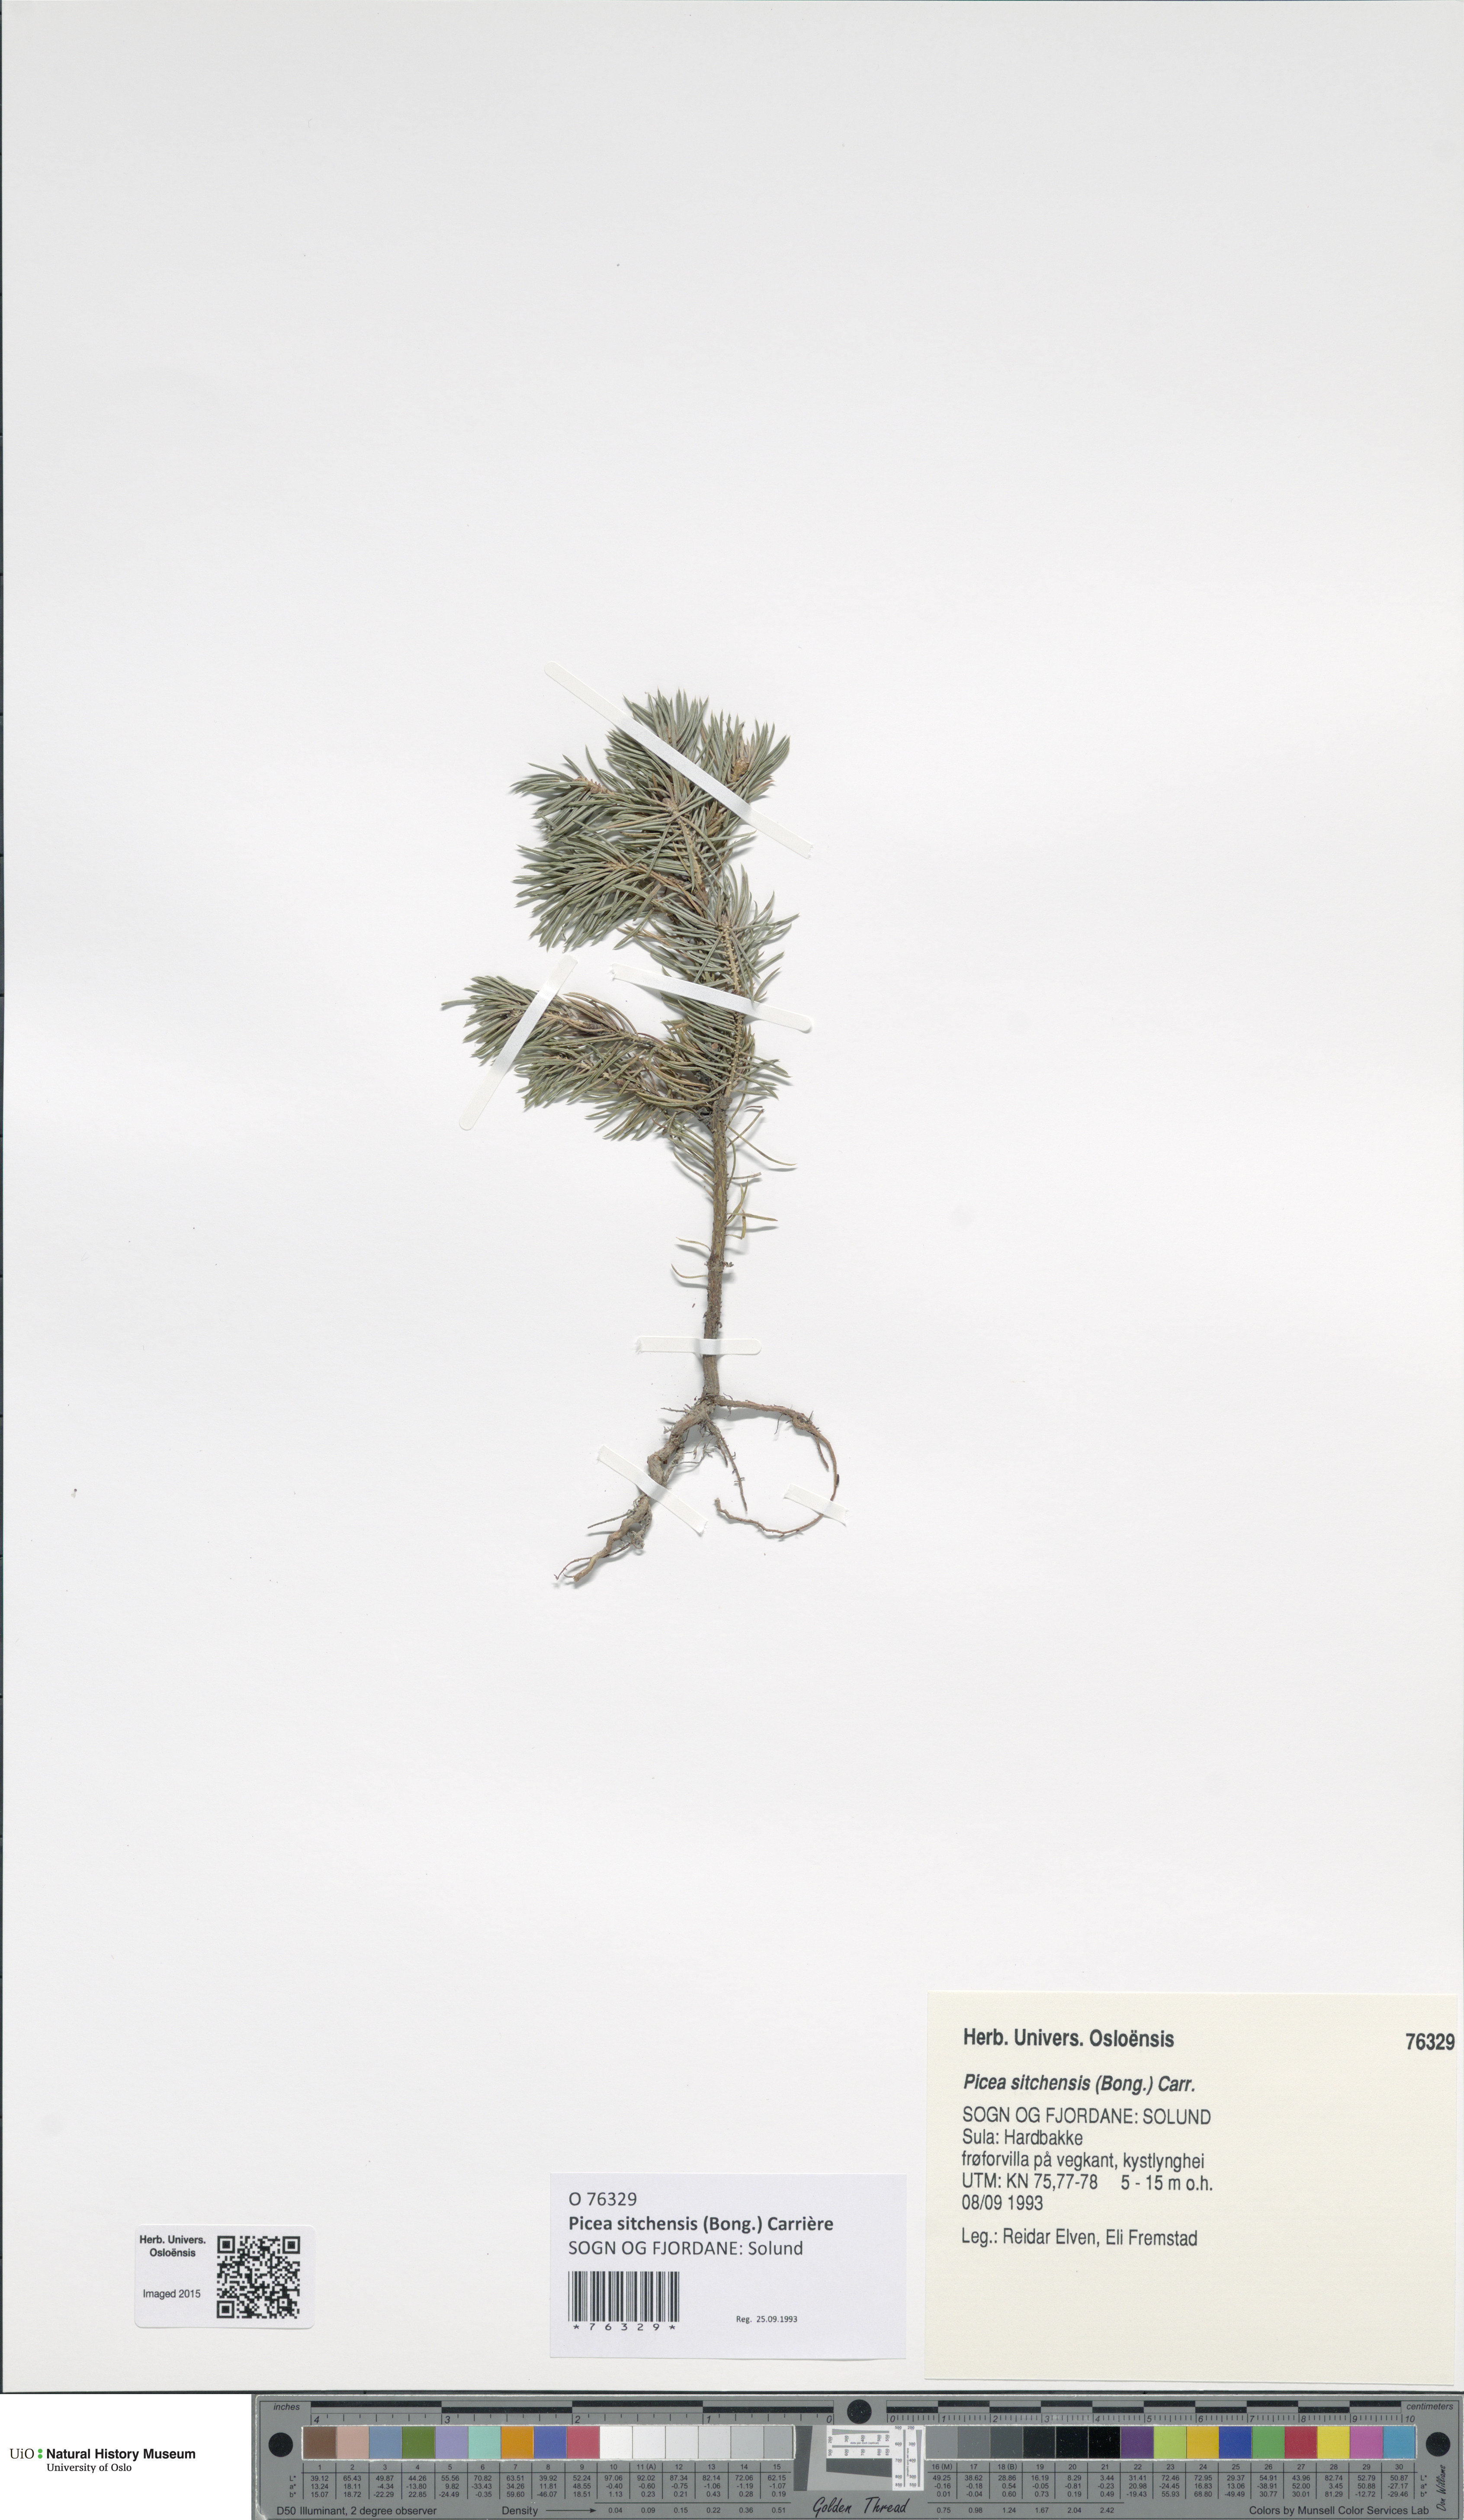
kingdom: Plantae
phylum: Tracheophyta
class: Pinopsida
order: Pinales
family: Pinaceae
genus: Picea
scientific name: Picea sitchensis
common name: Sitka spruce
